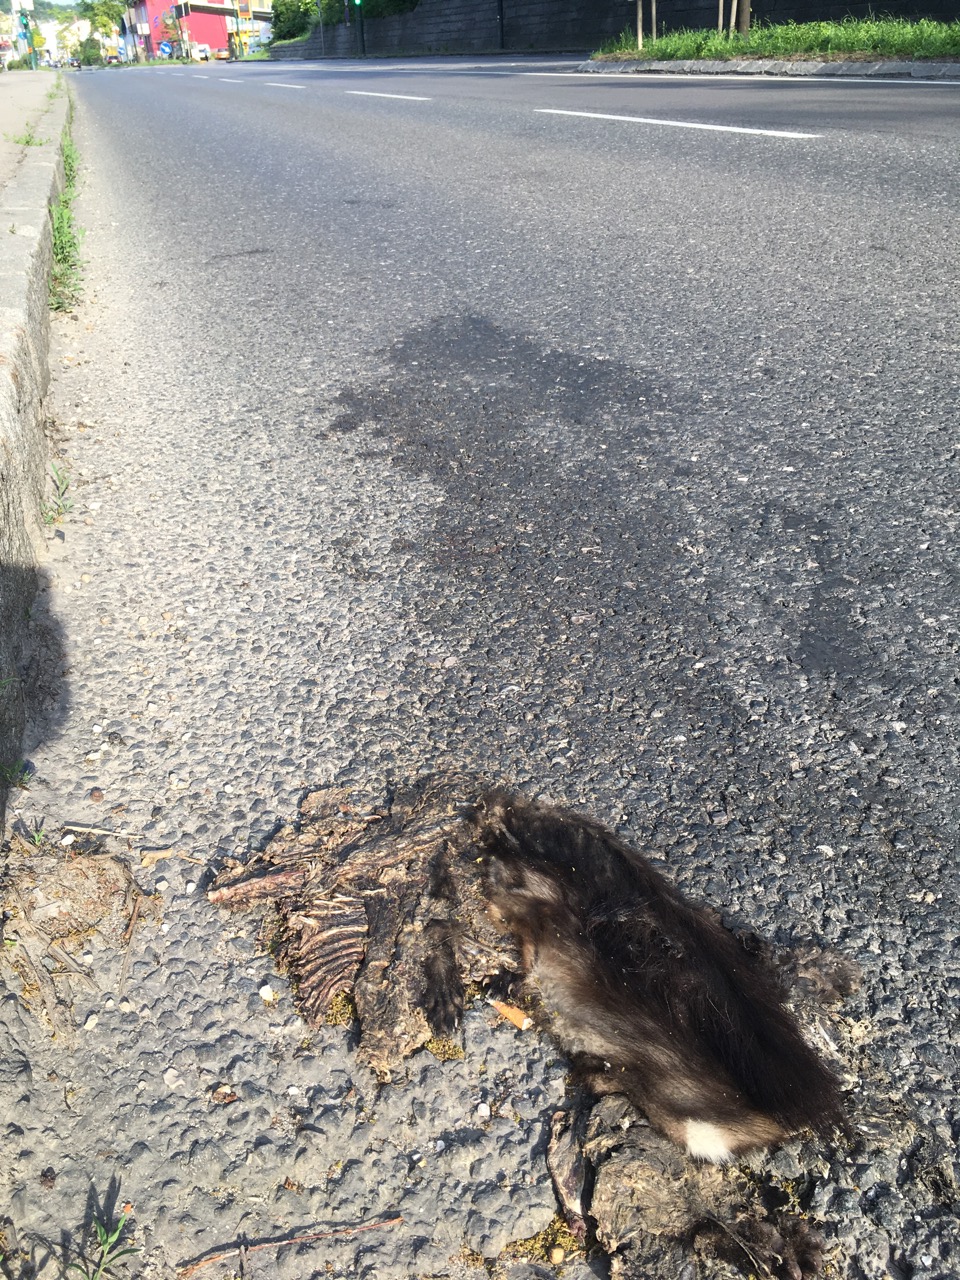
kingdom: Animalia
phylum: Chordata
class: Mammalia
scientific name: Mammalia
